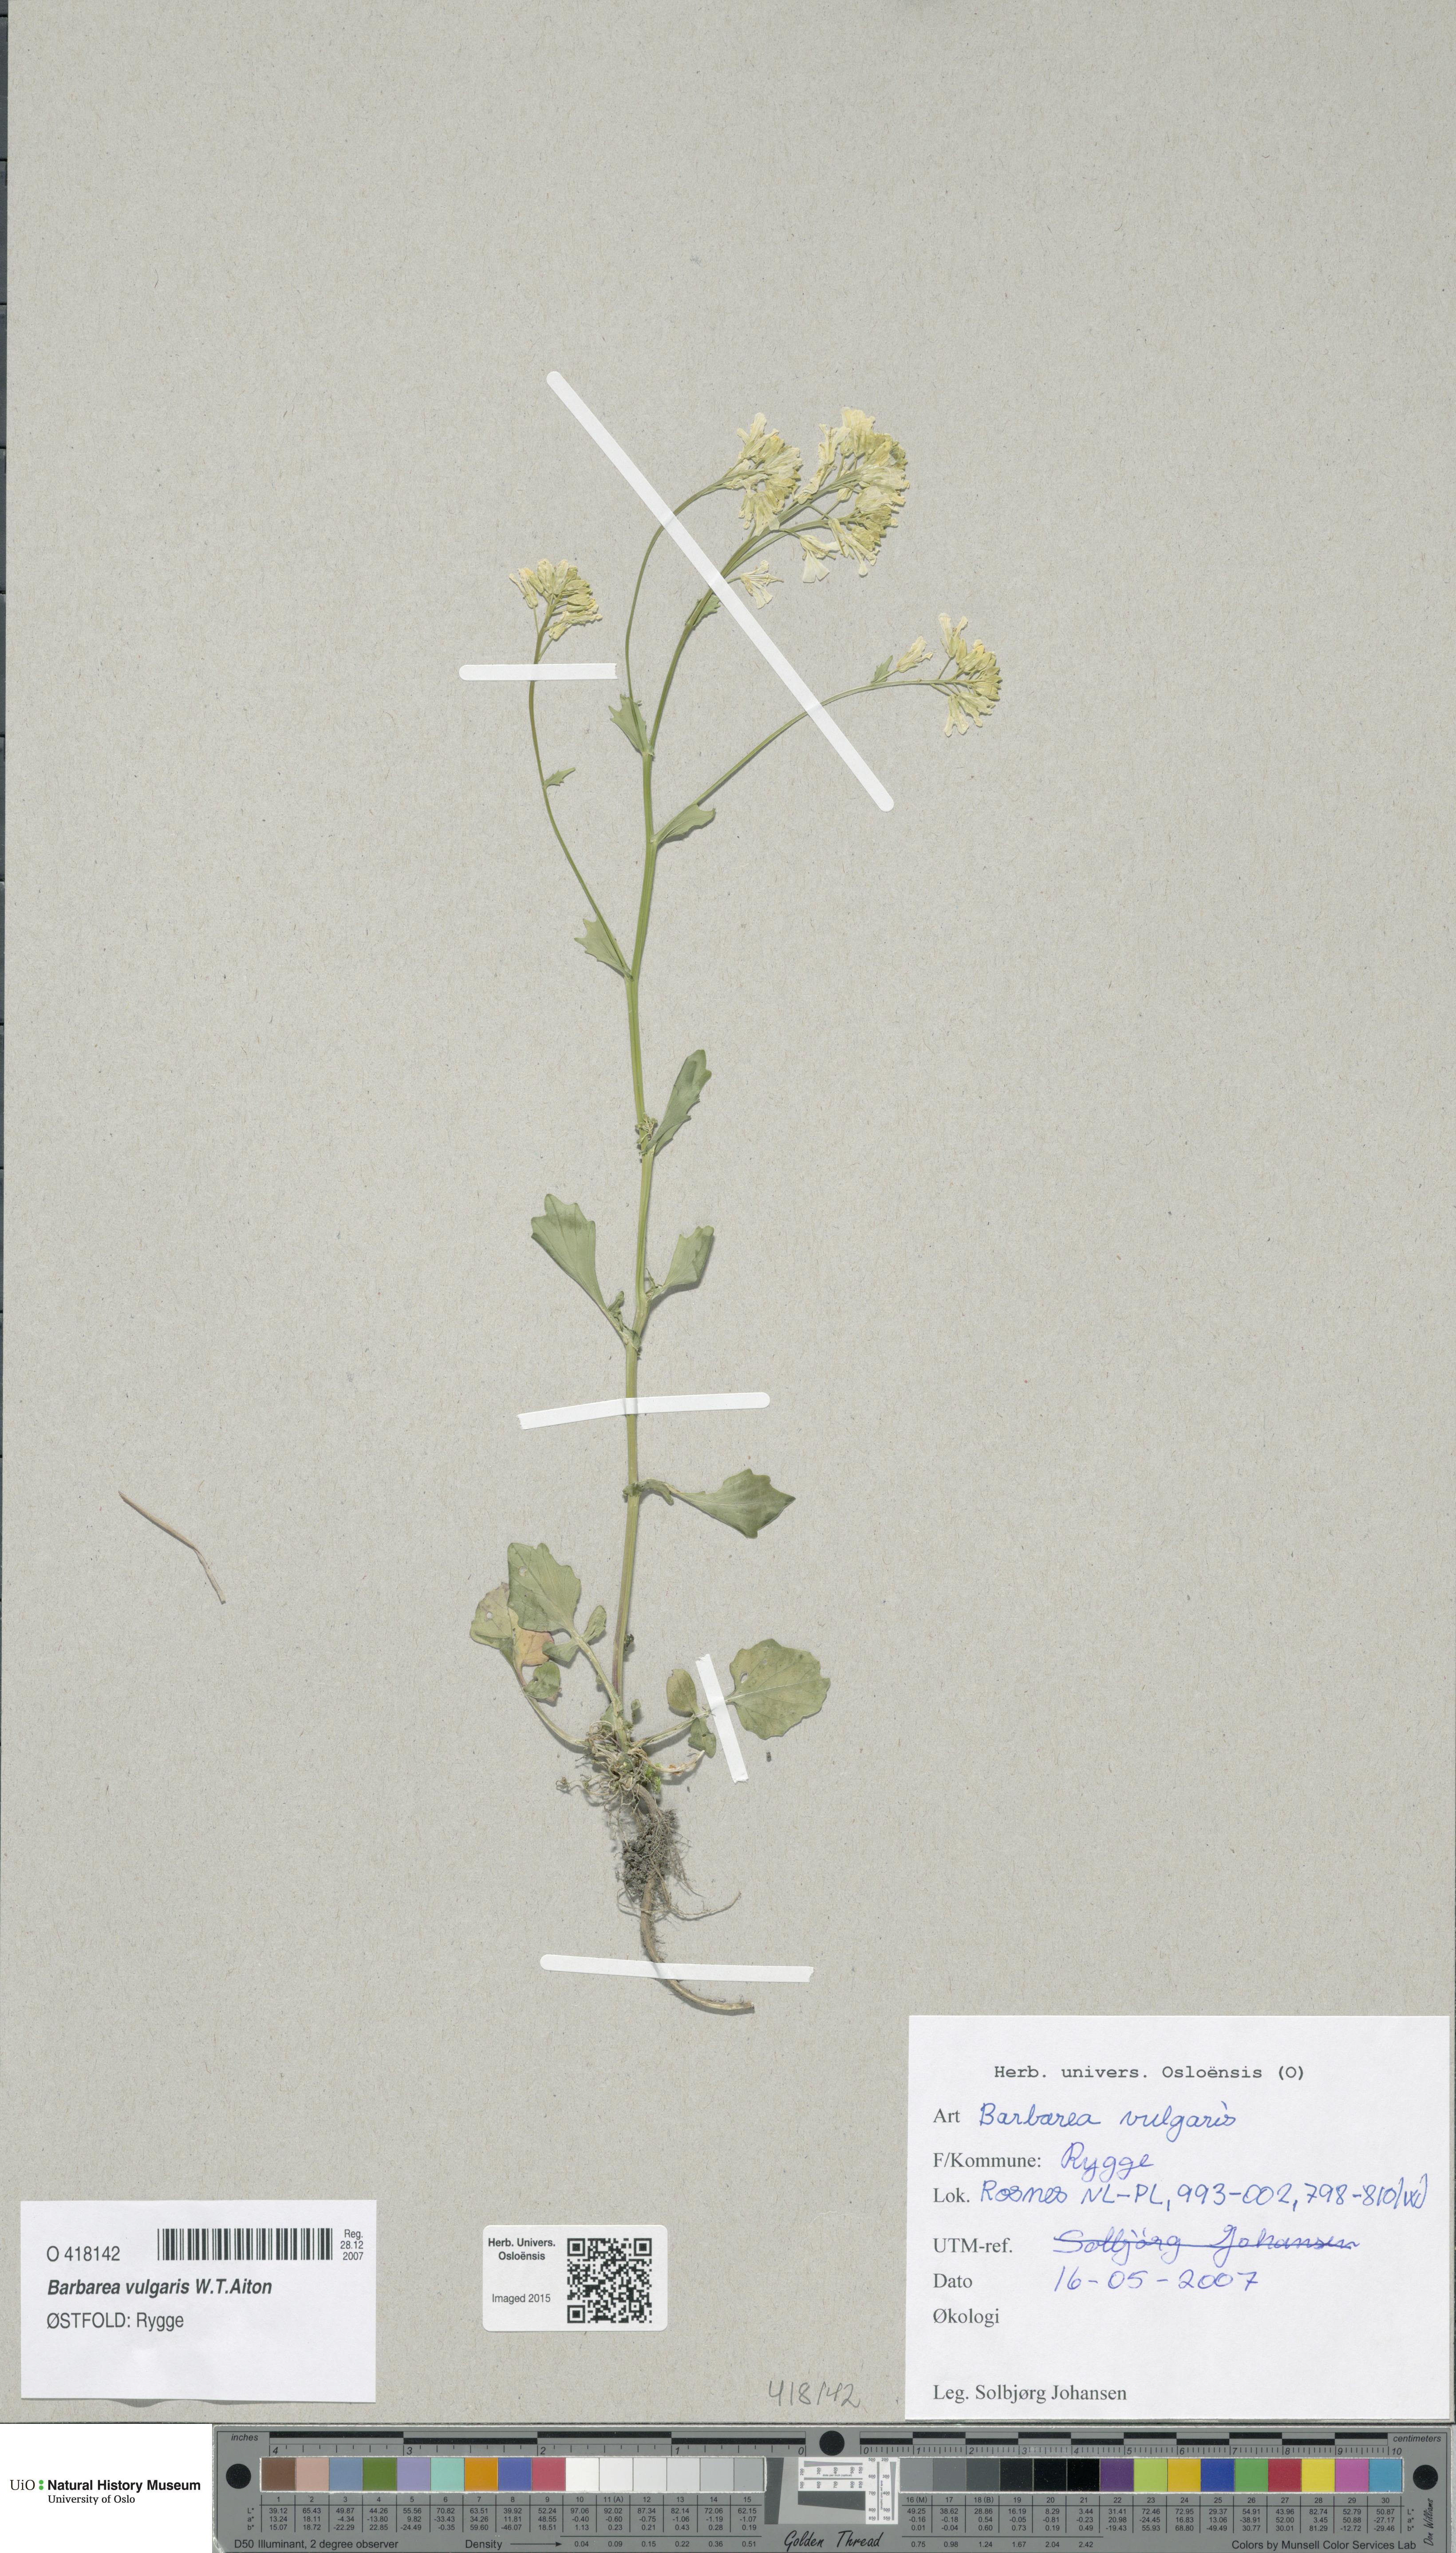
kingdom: Plantae
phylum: Tracheophyta
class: Magnoliopsida
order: Brassicales
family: Brassicaceae
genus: Barbarea
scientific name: Barbarea vulgaris
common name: Cressy-greens
